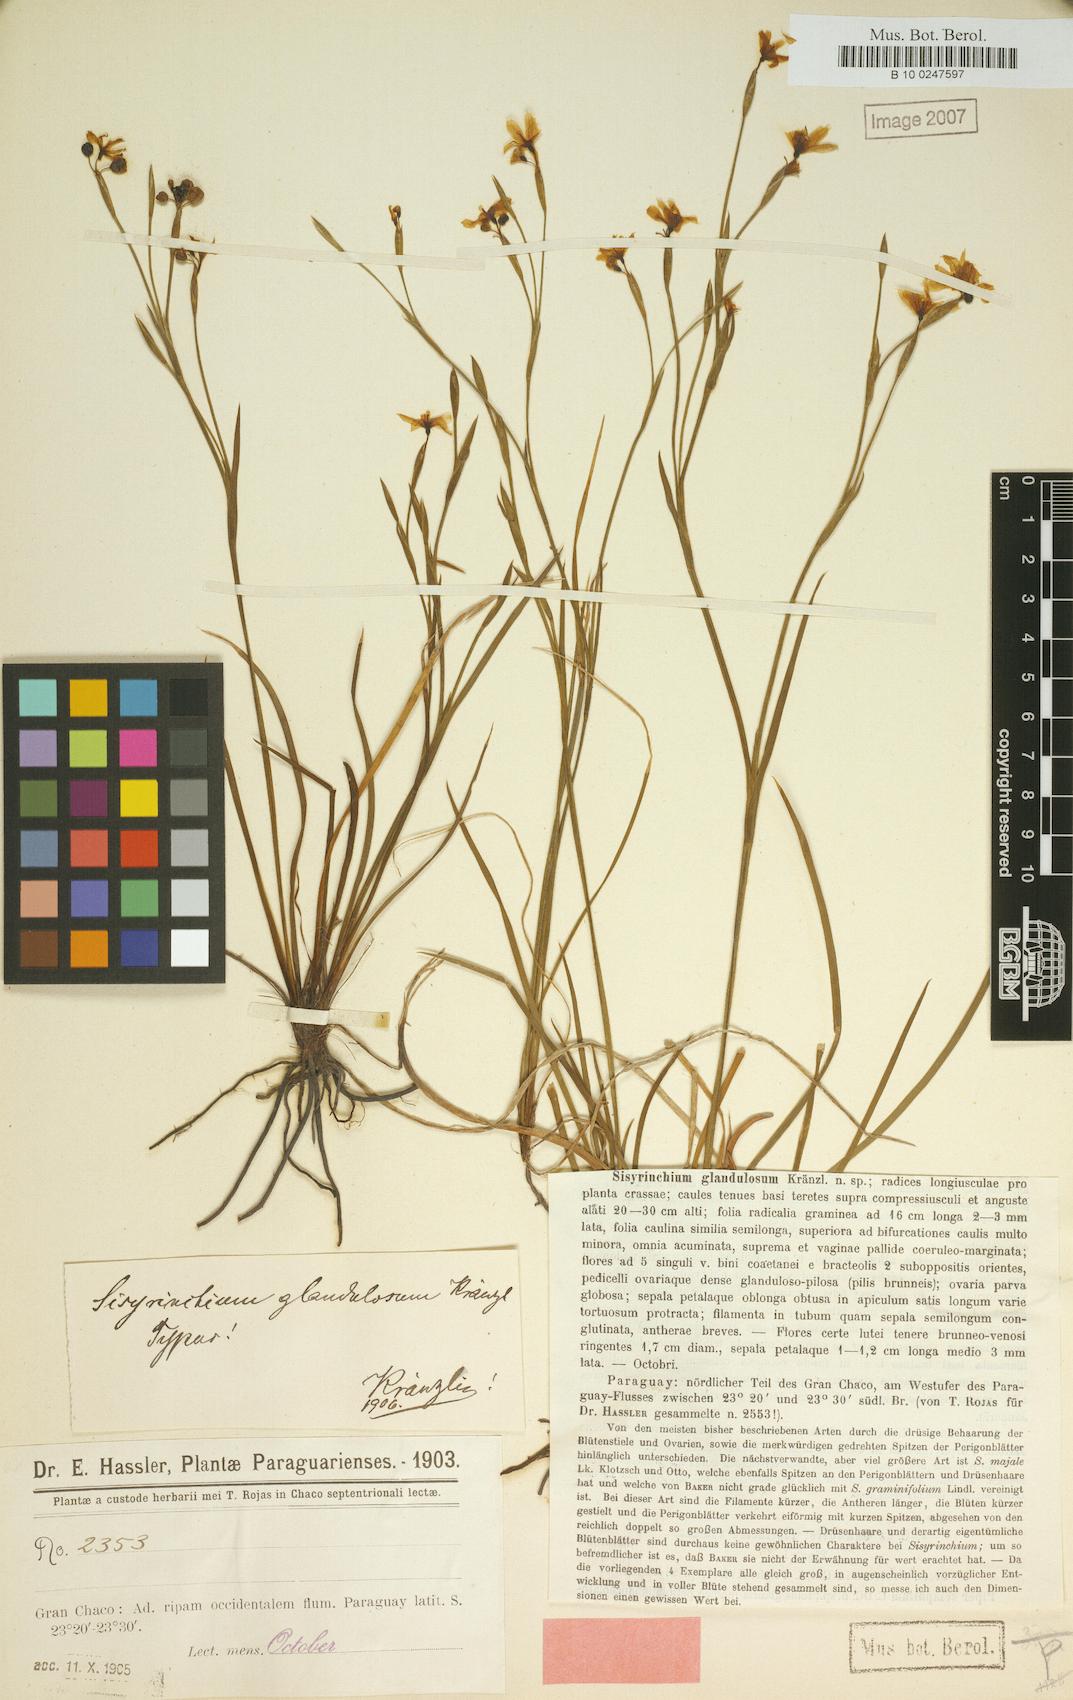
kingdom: Plantae
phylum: Tracheophyta
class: Liliopsida
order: Asparagales
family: Iridaceae
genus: Sisyrinchium
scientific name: Sisyrinchium pachyrhizum
